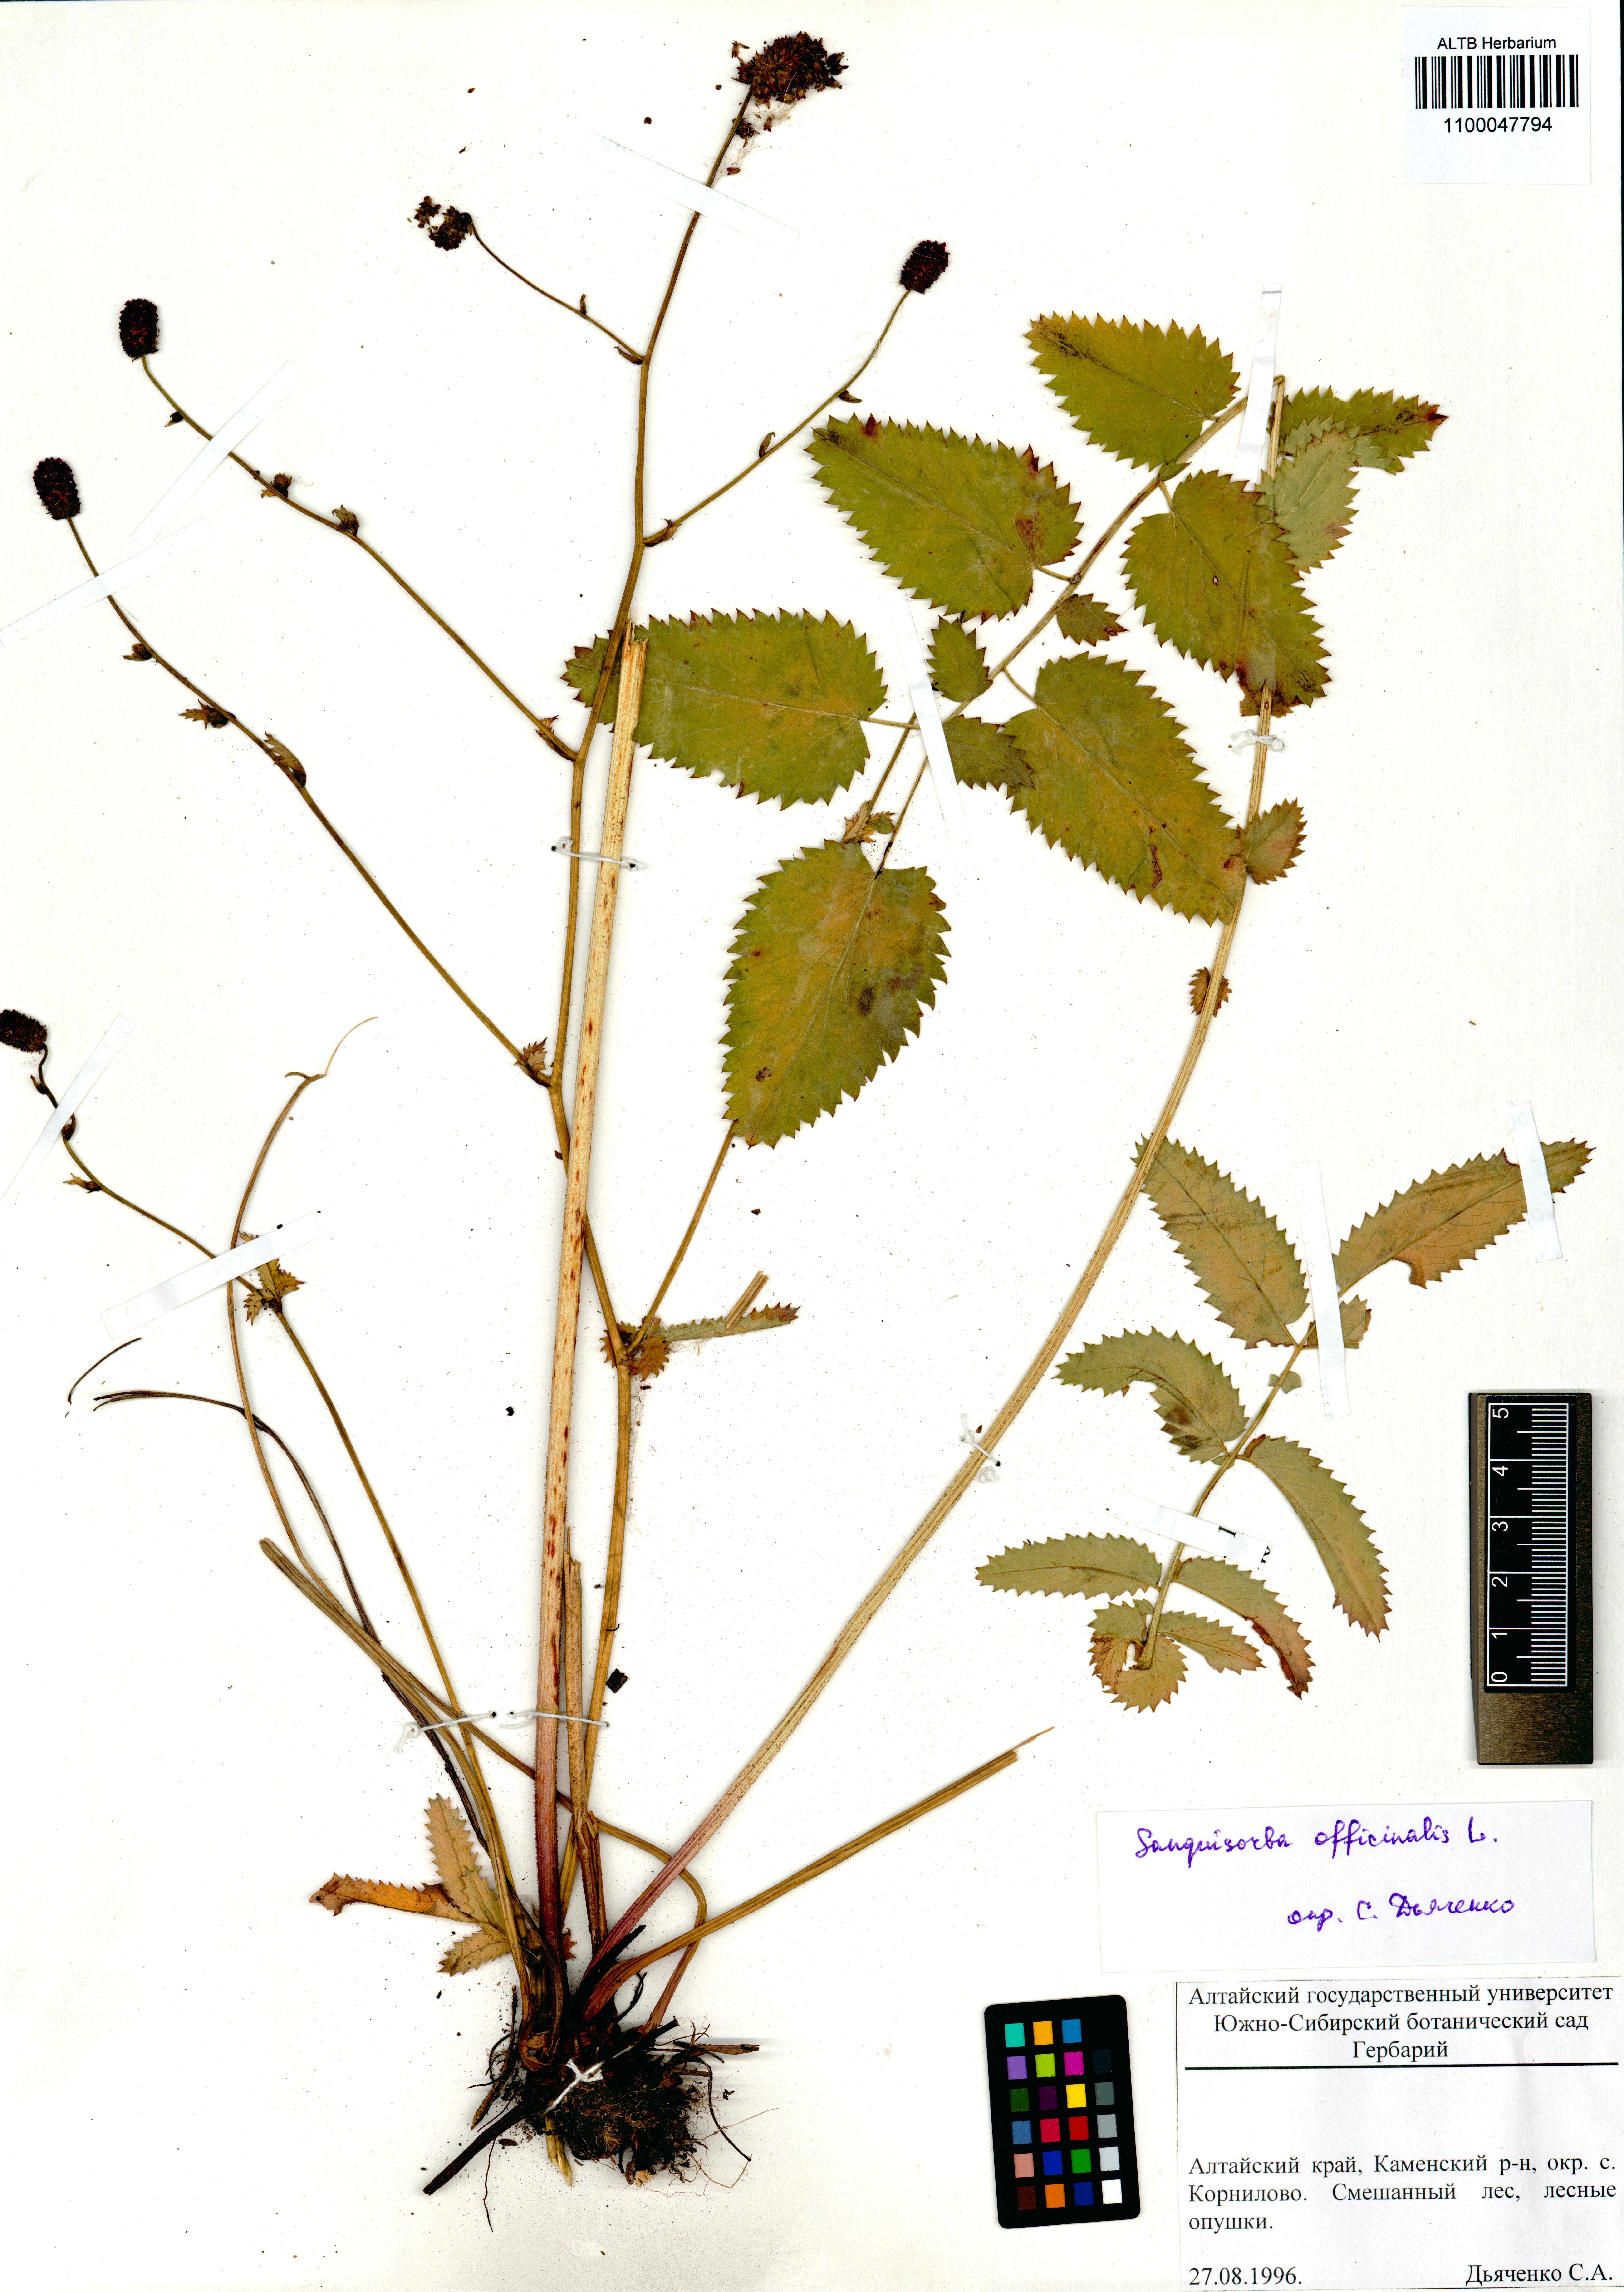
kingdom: Plantae
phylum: Tracheophyta
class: Magnoliopsida
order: Rosales
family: Rosaceae
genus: Sanguisorba
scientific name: Sanguisorba officinalis
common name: Great burnet
